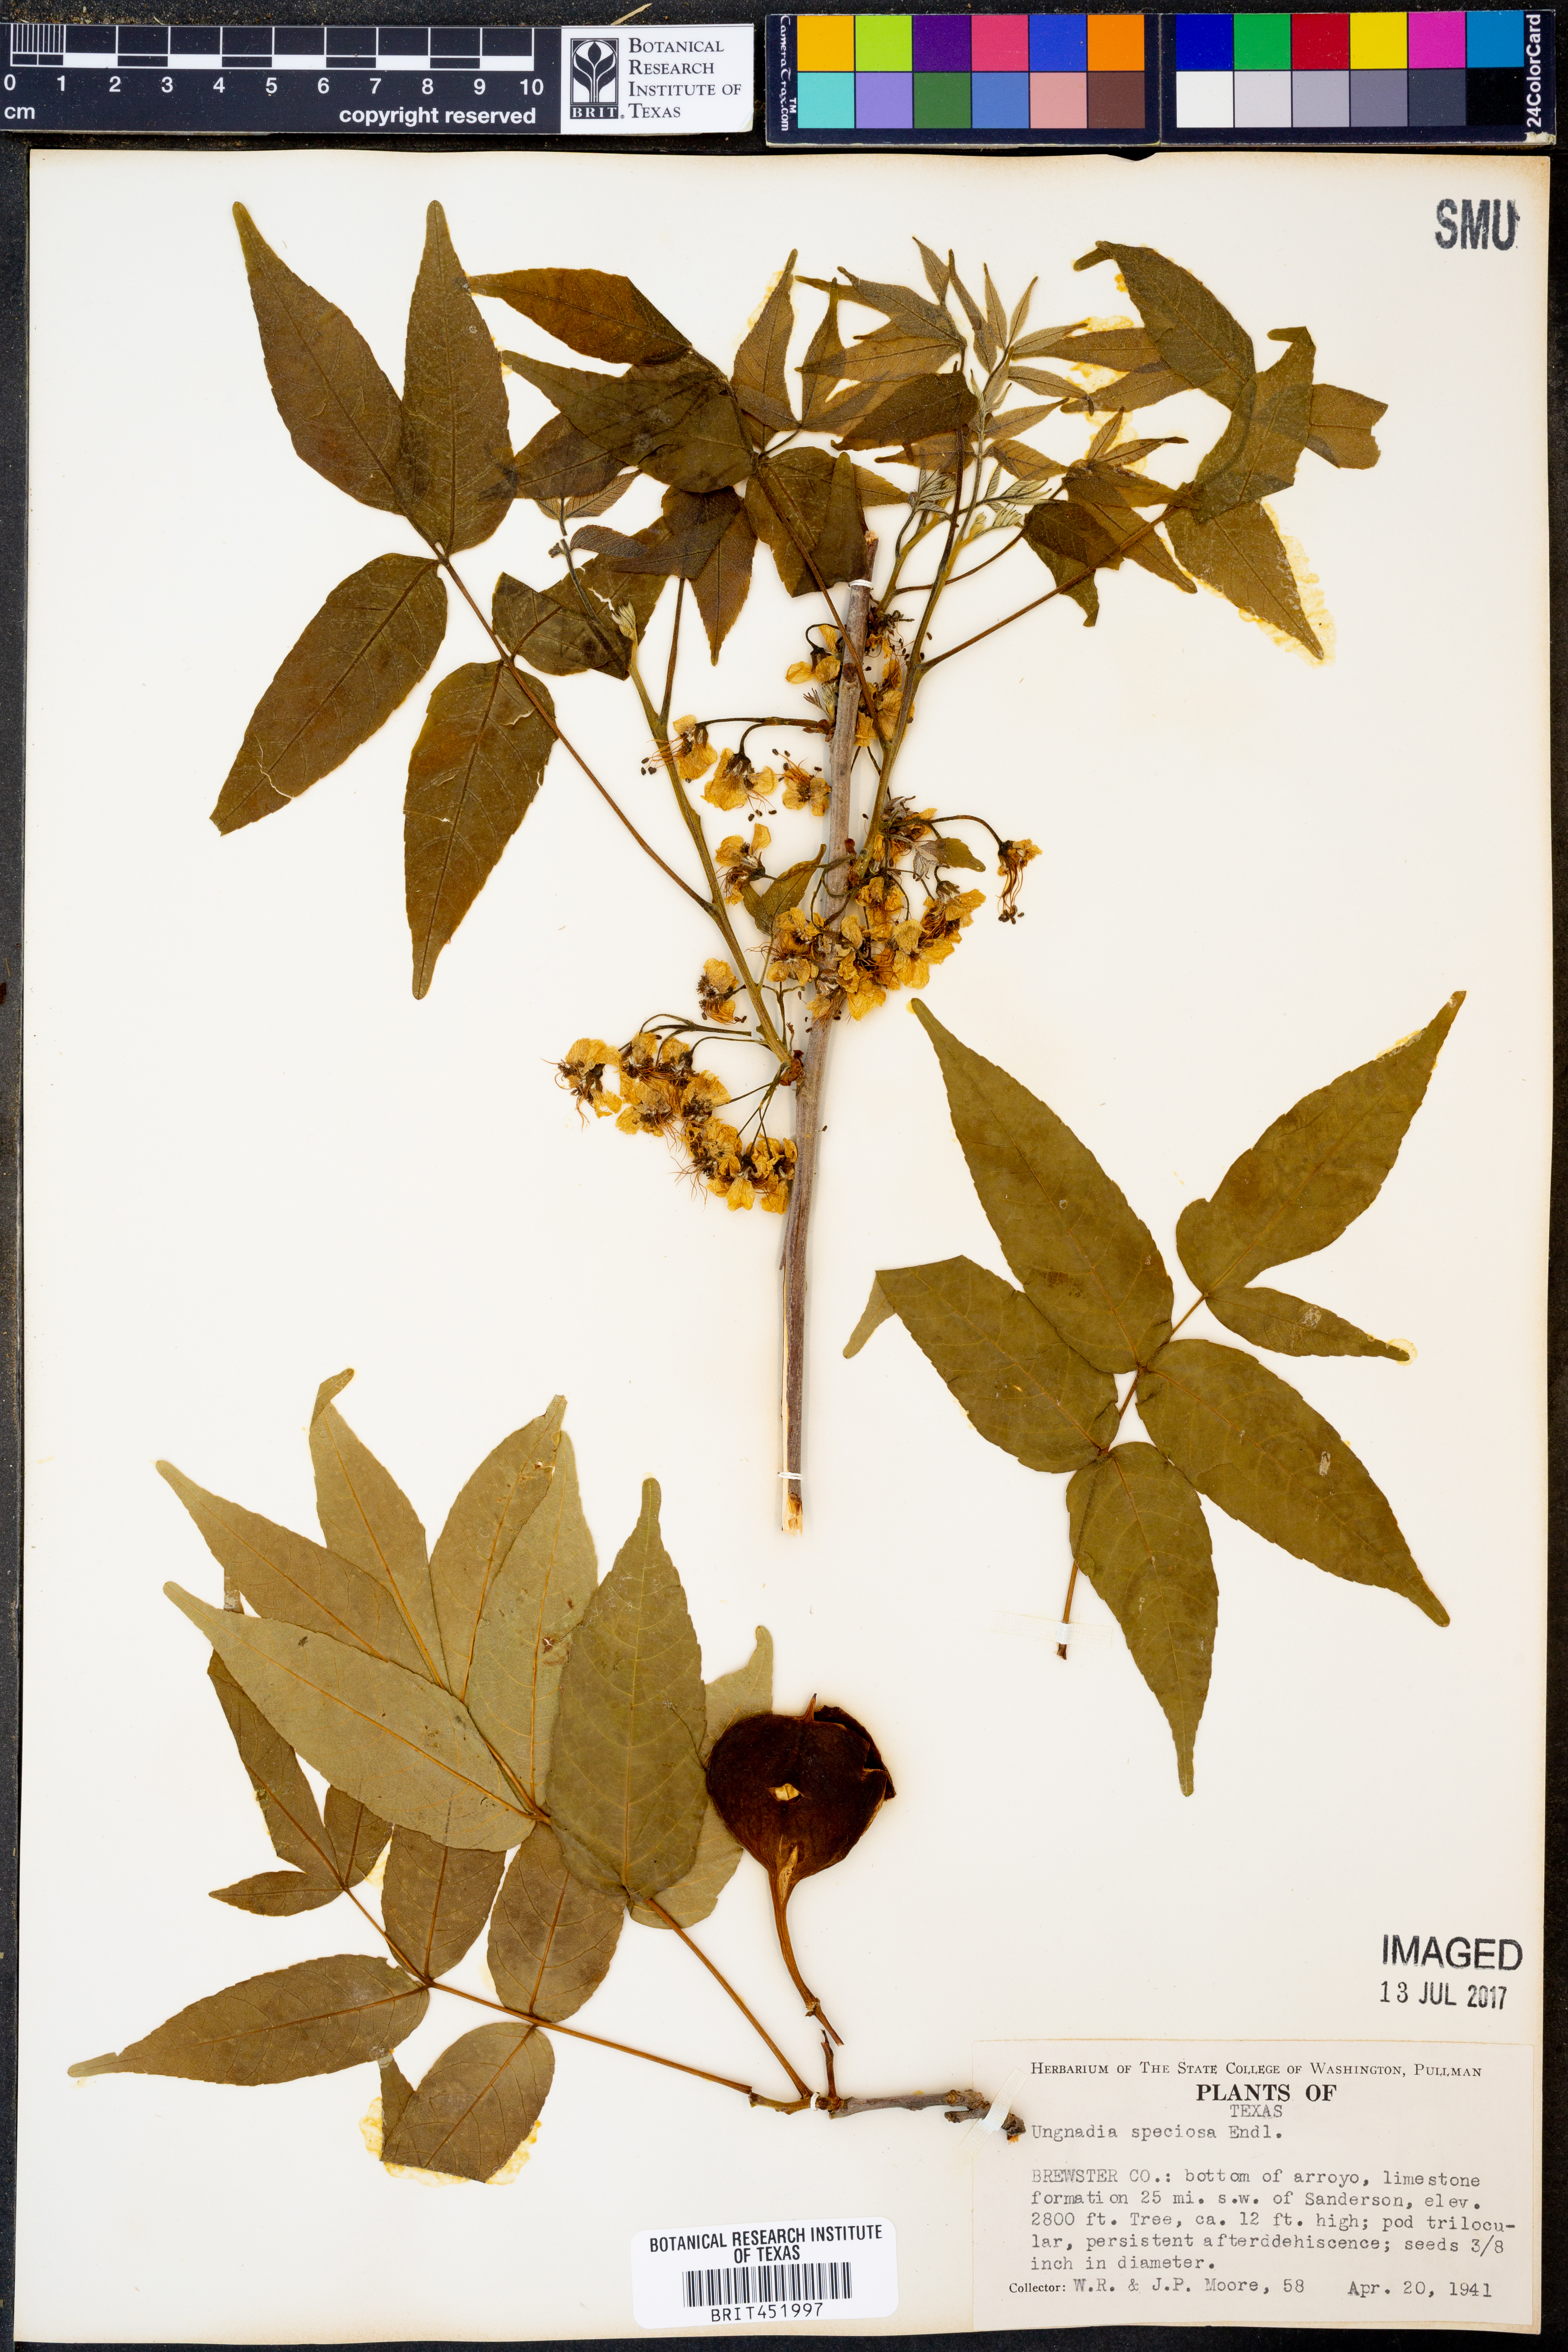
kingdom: Plantae
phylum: Tracheophyta
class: Magnoliopsida
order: Sapindales
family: Sapindaceae
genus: Ungnadia
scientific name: Ungnadia speciosa
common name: Texas-buckeye
